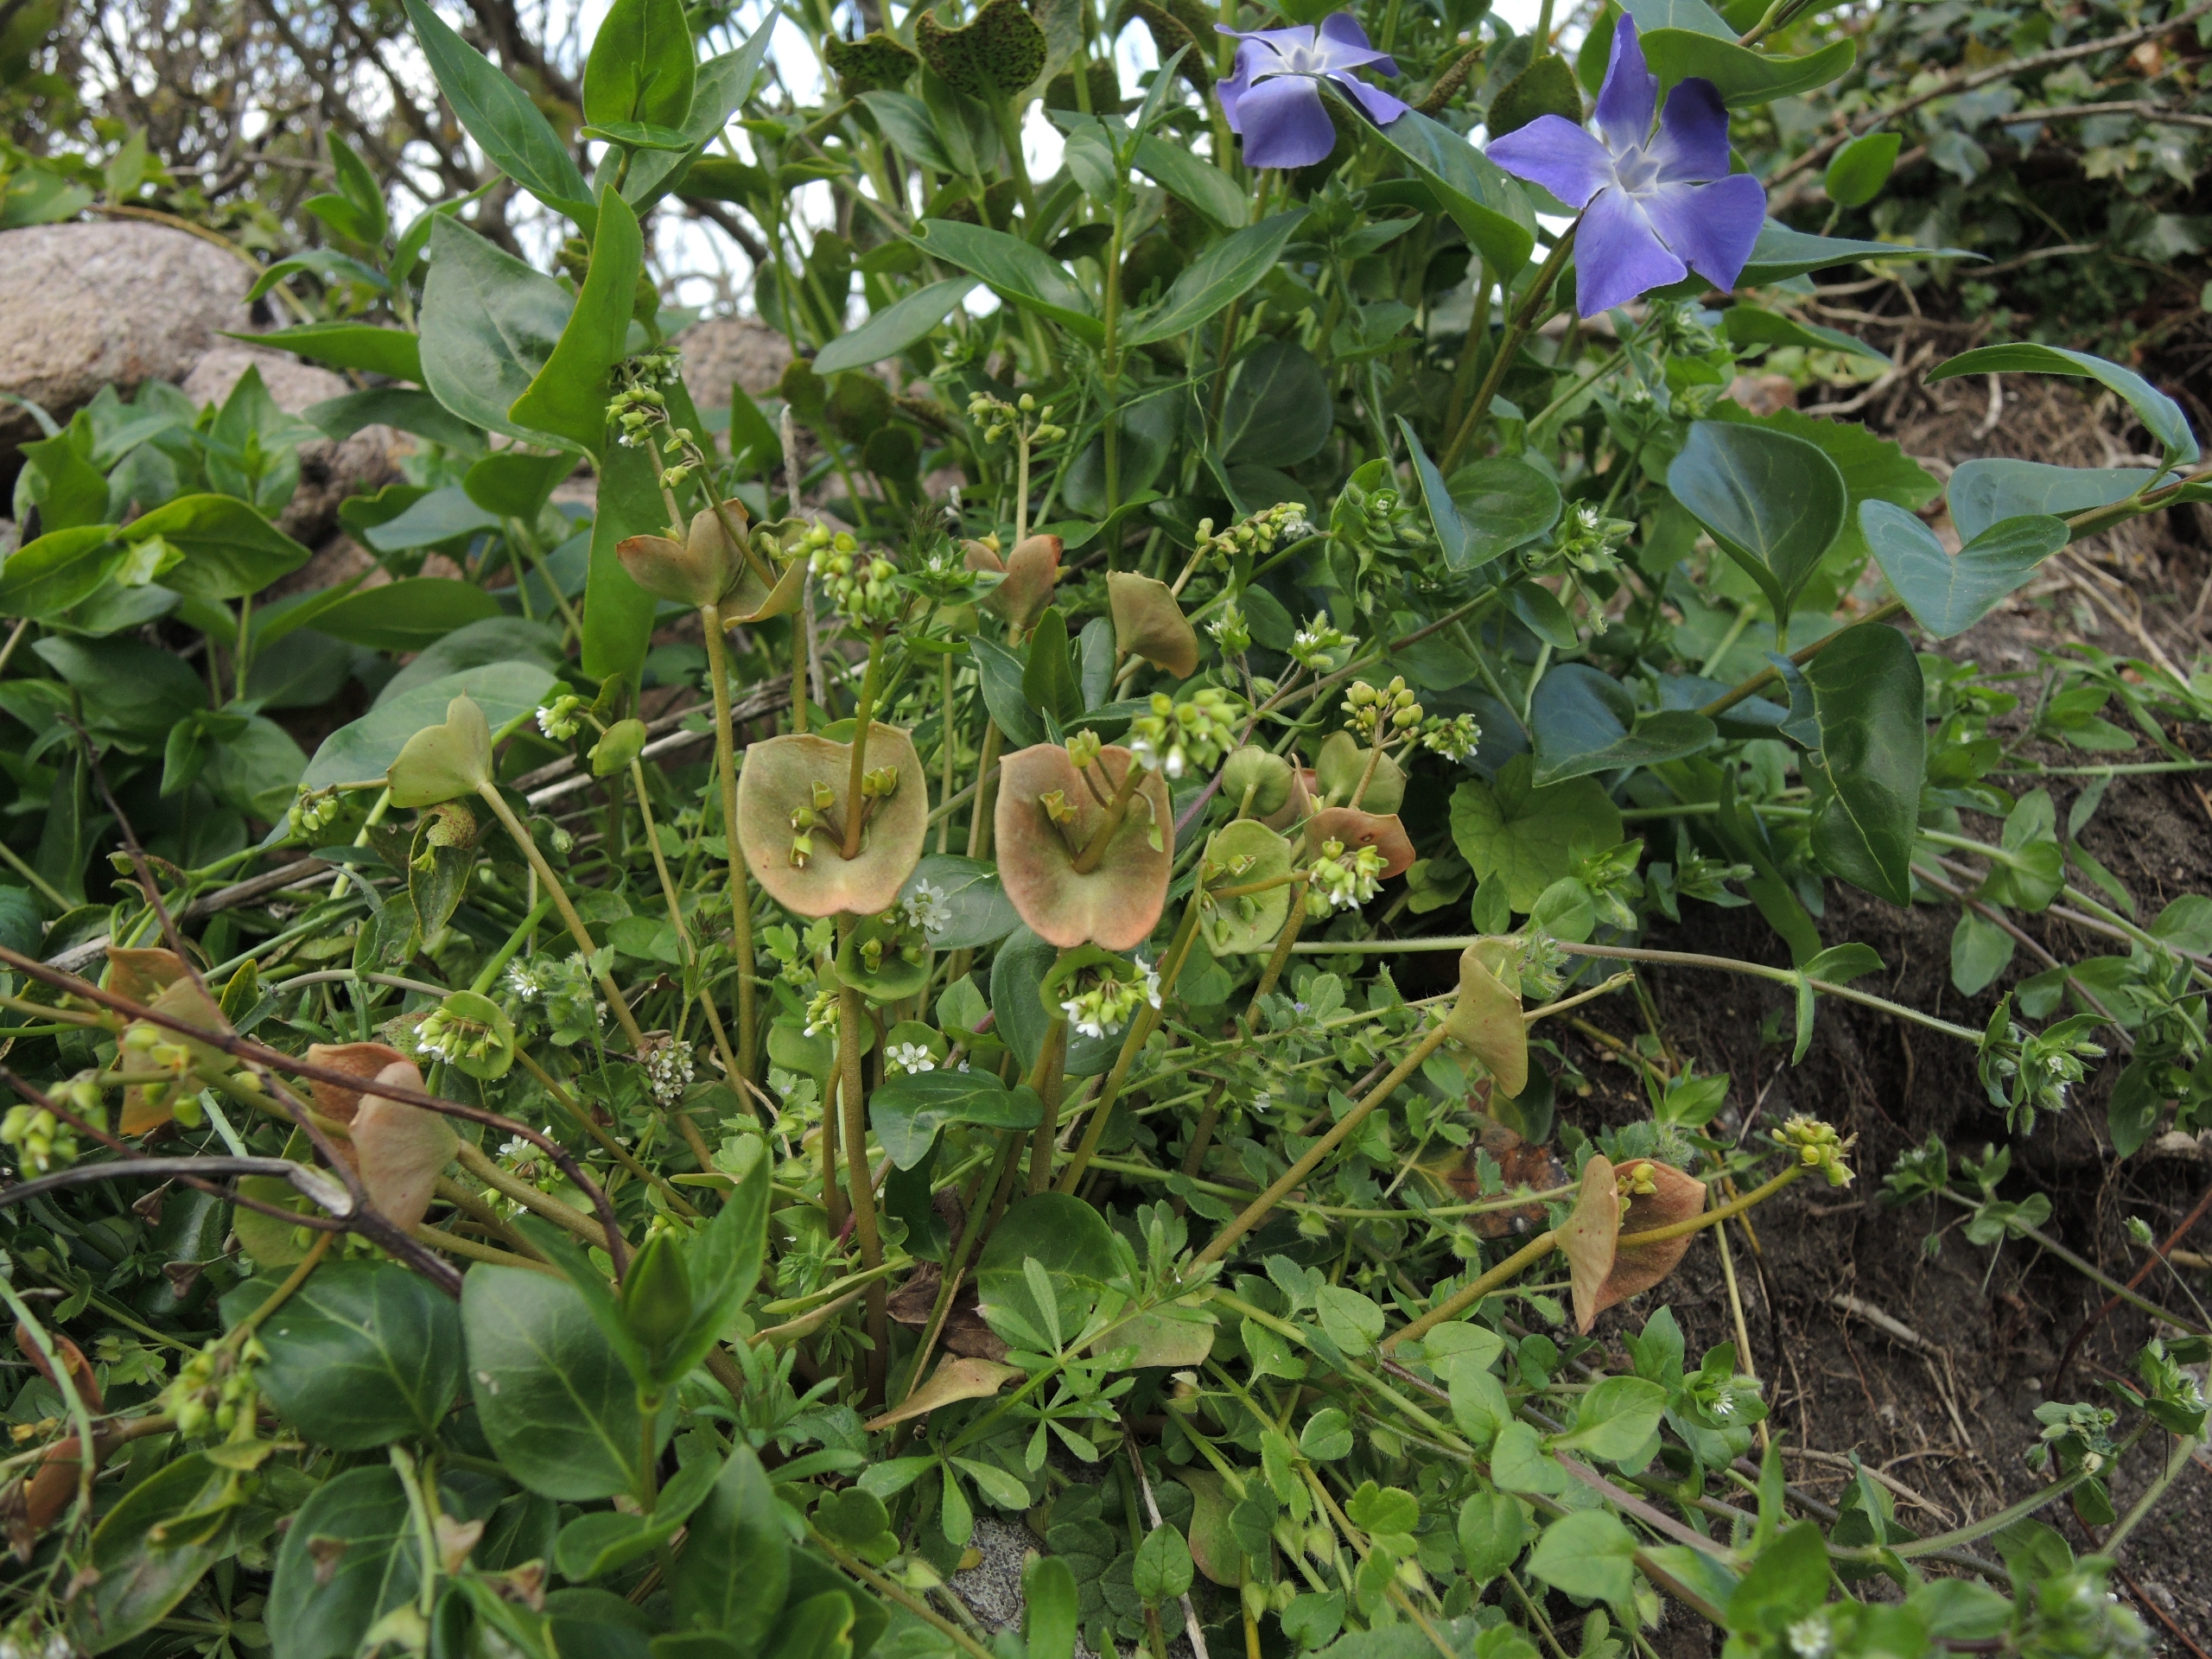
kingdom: Plantae
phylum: Tracheophyta
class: Magnoliopsida
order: Caryophyllales
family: Montiaceae
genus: Claytonia
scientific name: Claytonia perfoliata
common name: Spiselig vinterportulak
